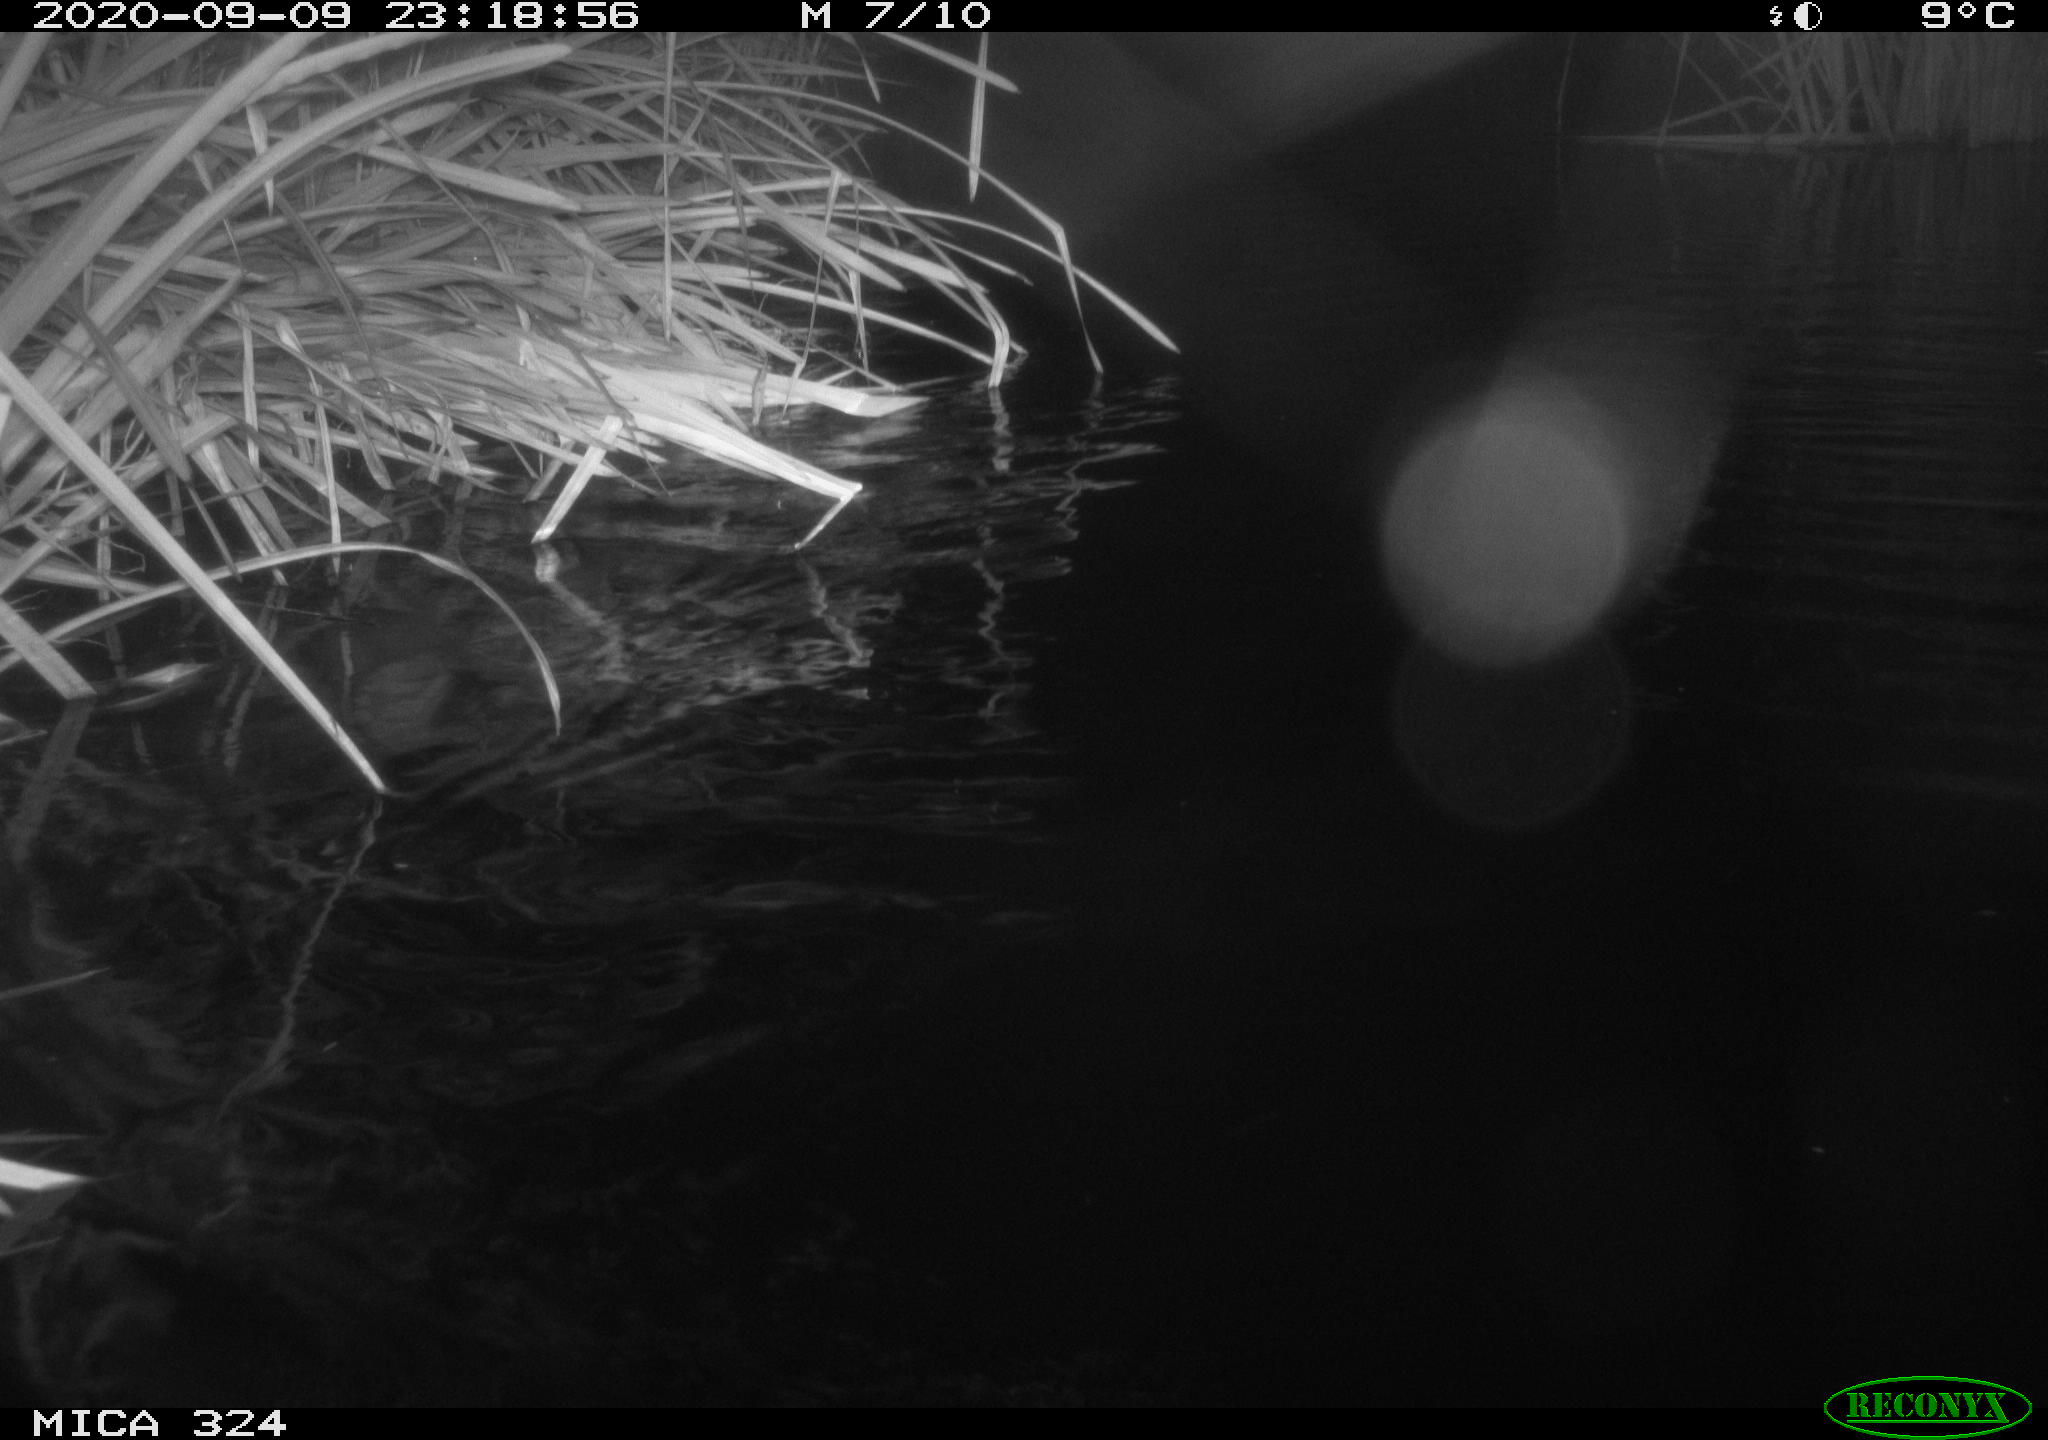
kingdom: Animalia
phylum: Chordata
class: Mammalia
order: Rodentia
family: Cricetidae
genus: Ondatra
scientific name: Ondatra zibethicus
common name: Muskrat
